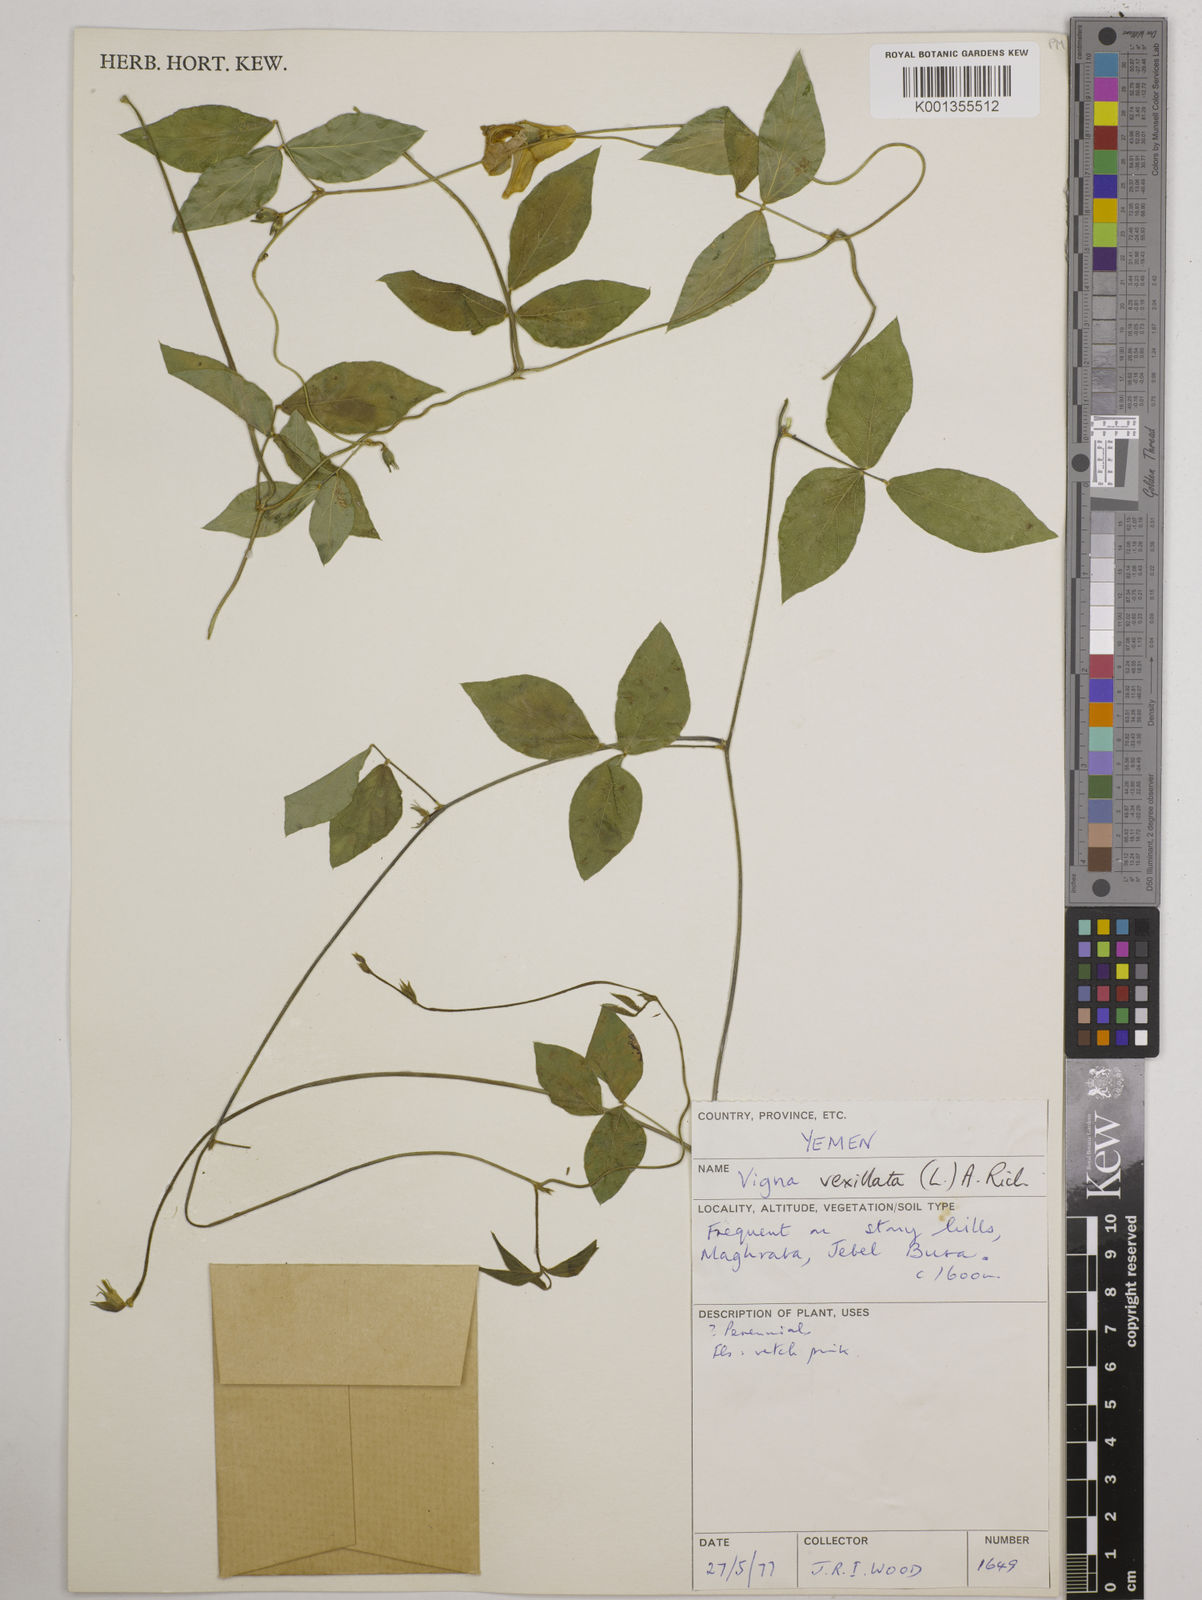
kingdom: Plantae
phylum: Tracheophyta
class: Magnoliopsida
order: Fabales
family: Fabaceae
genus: Vigna
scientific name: Vigna vexillata
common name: Zombi pea
